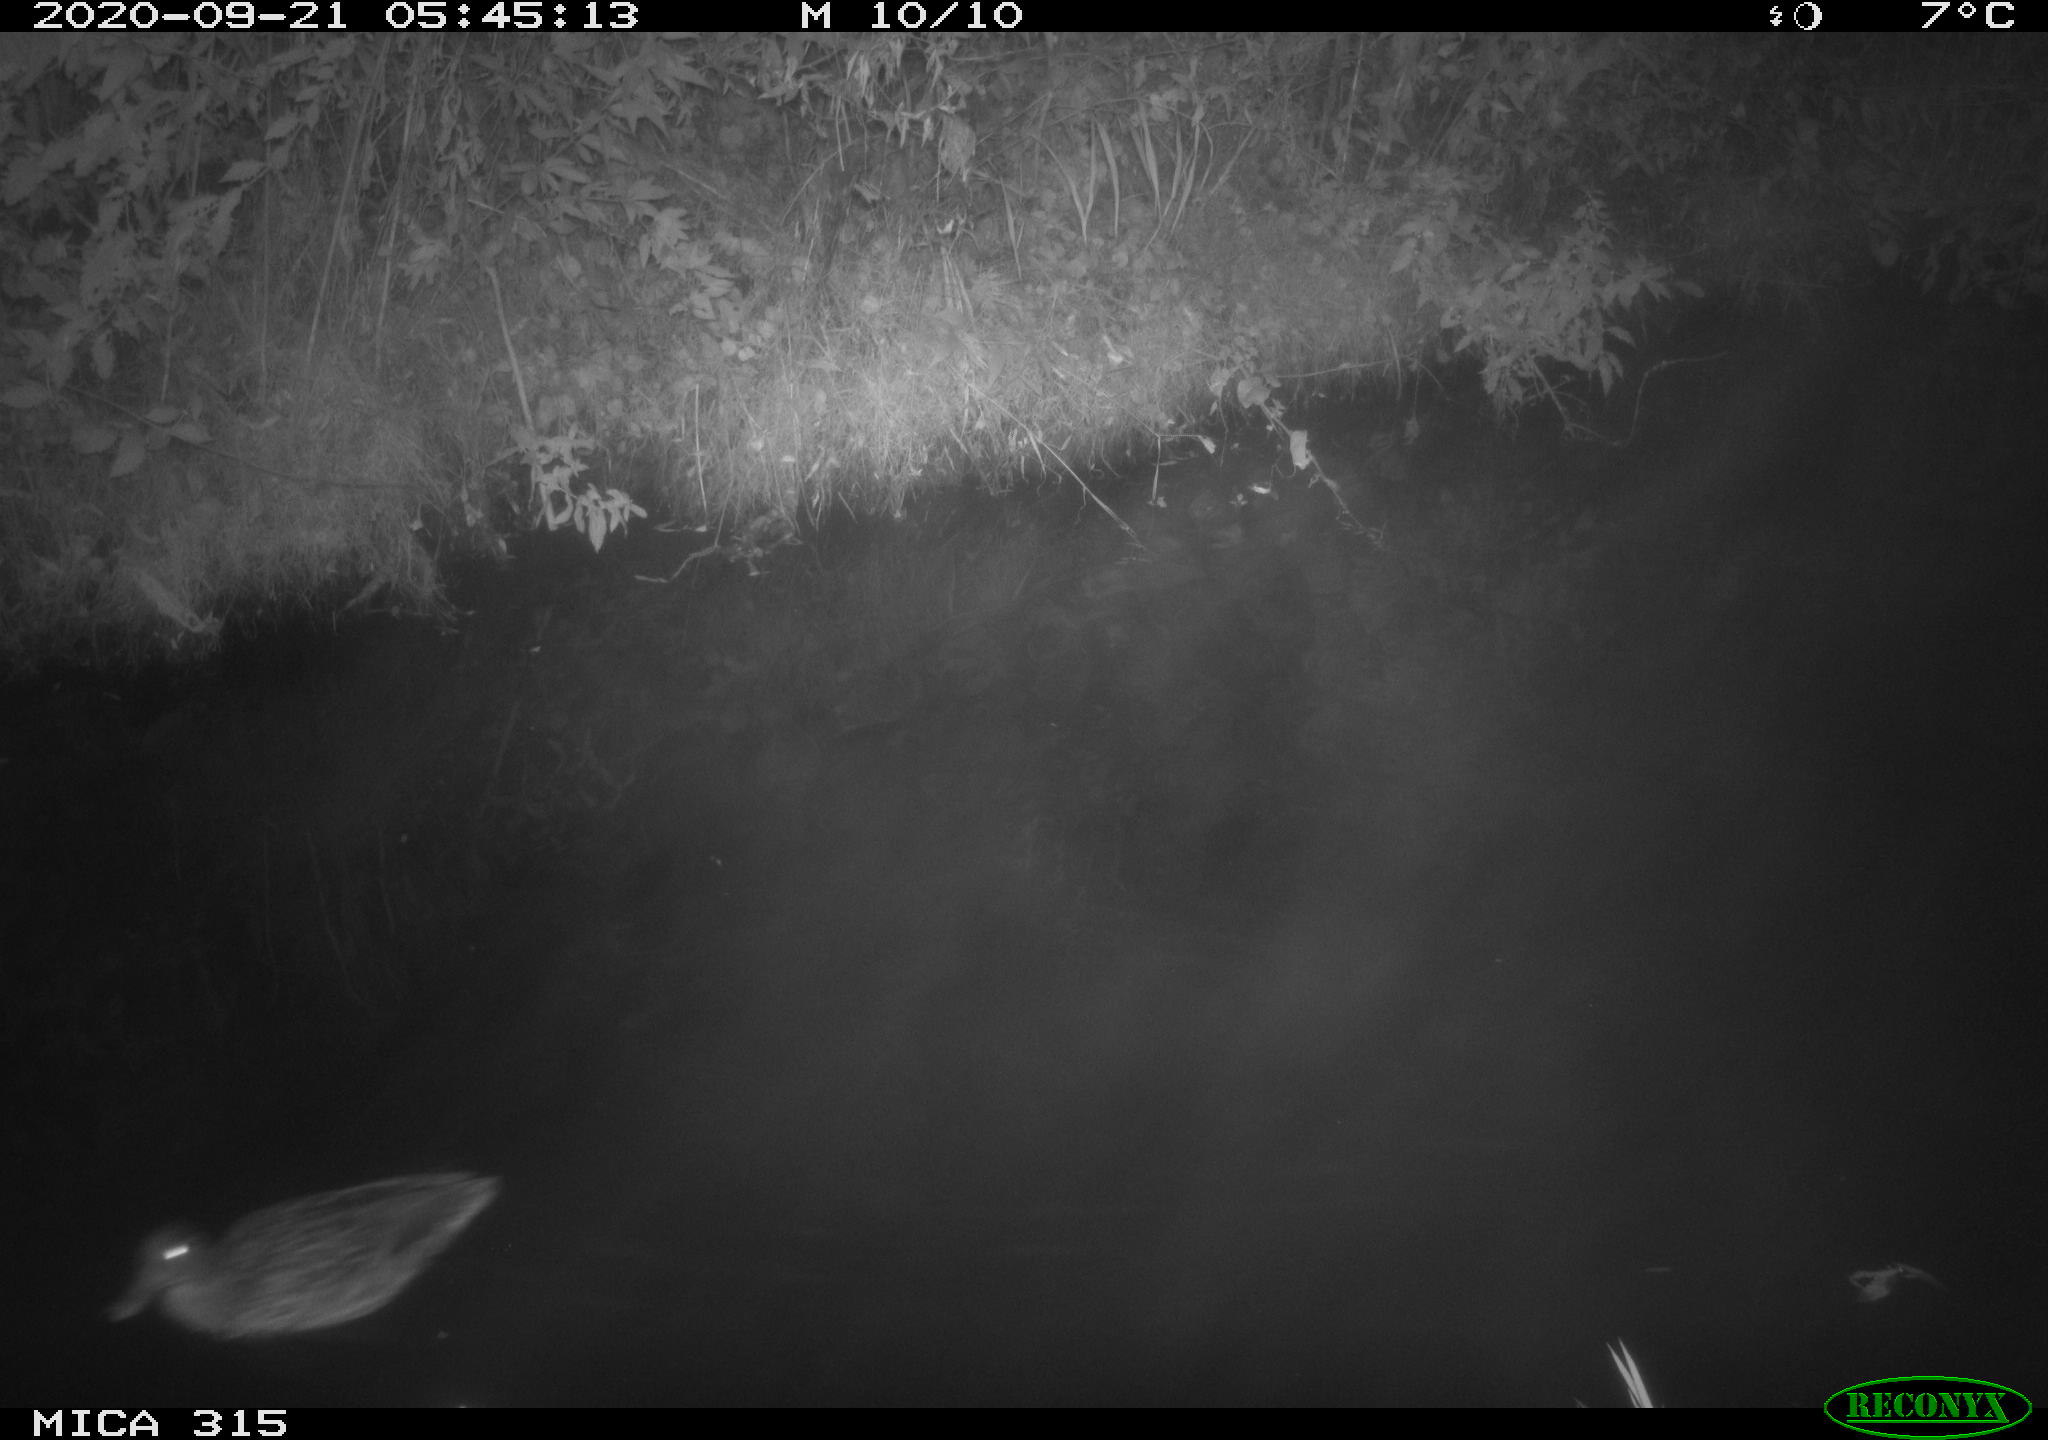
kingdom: Animalia
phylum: Chordata
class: Aves
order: Anseriformes
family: Anatidae
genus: Anas
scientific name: Anas platyrhynchos
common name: Mallard
